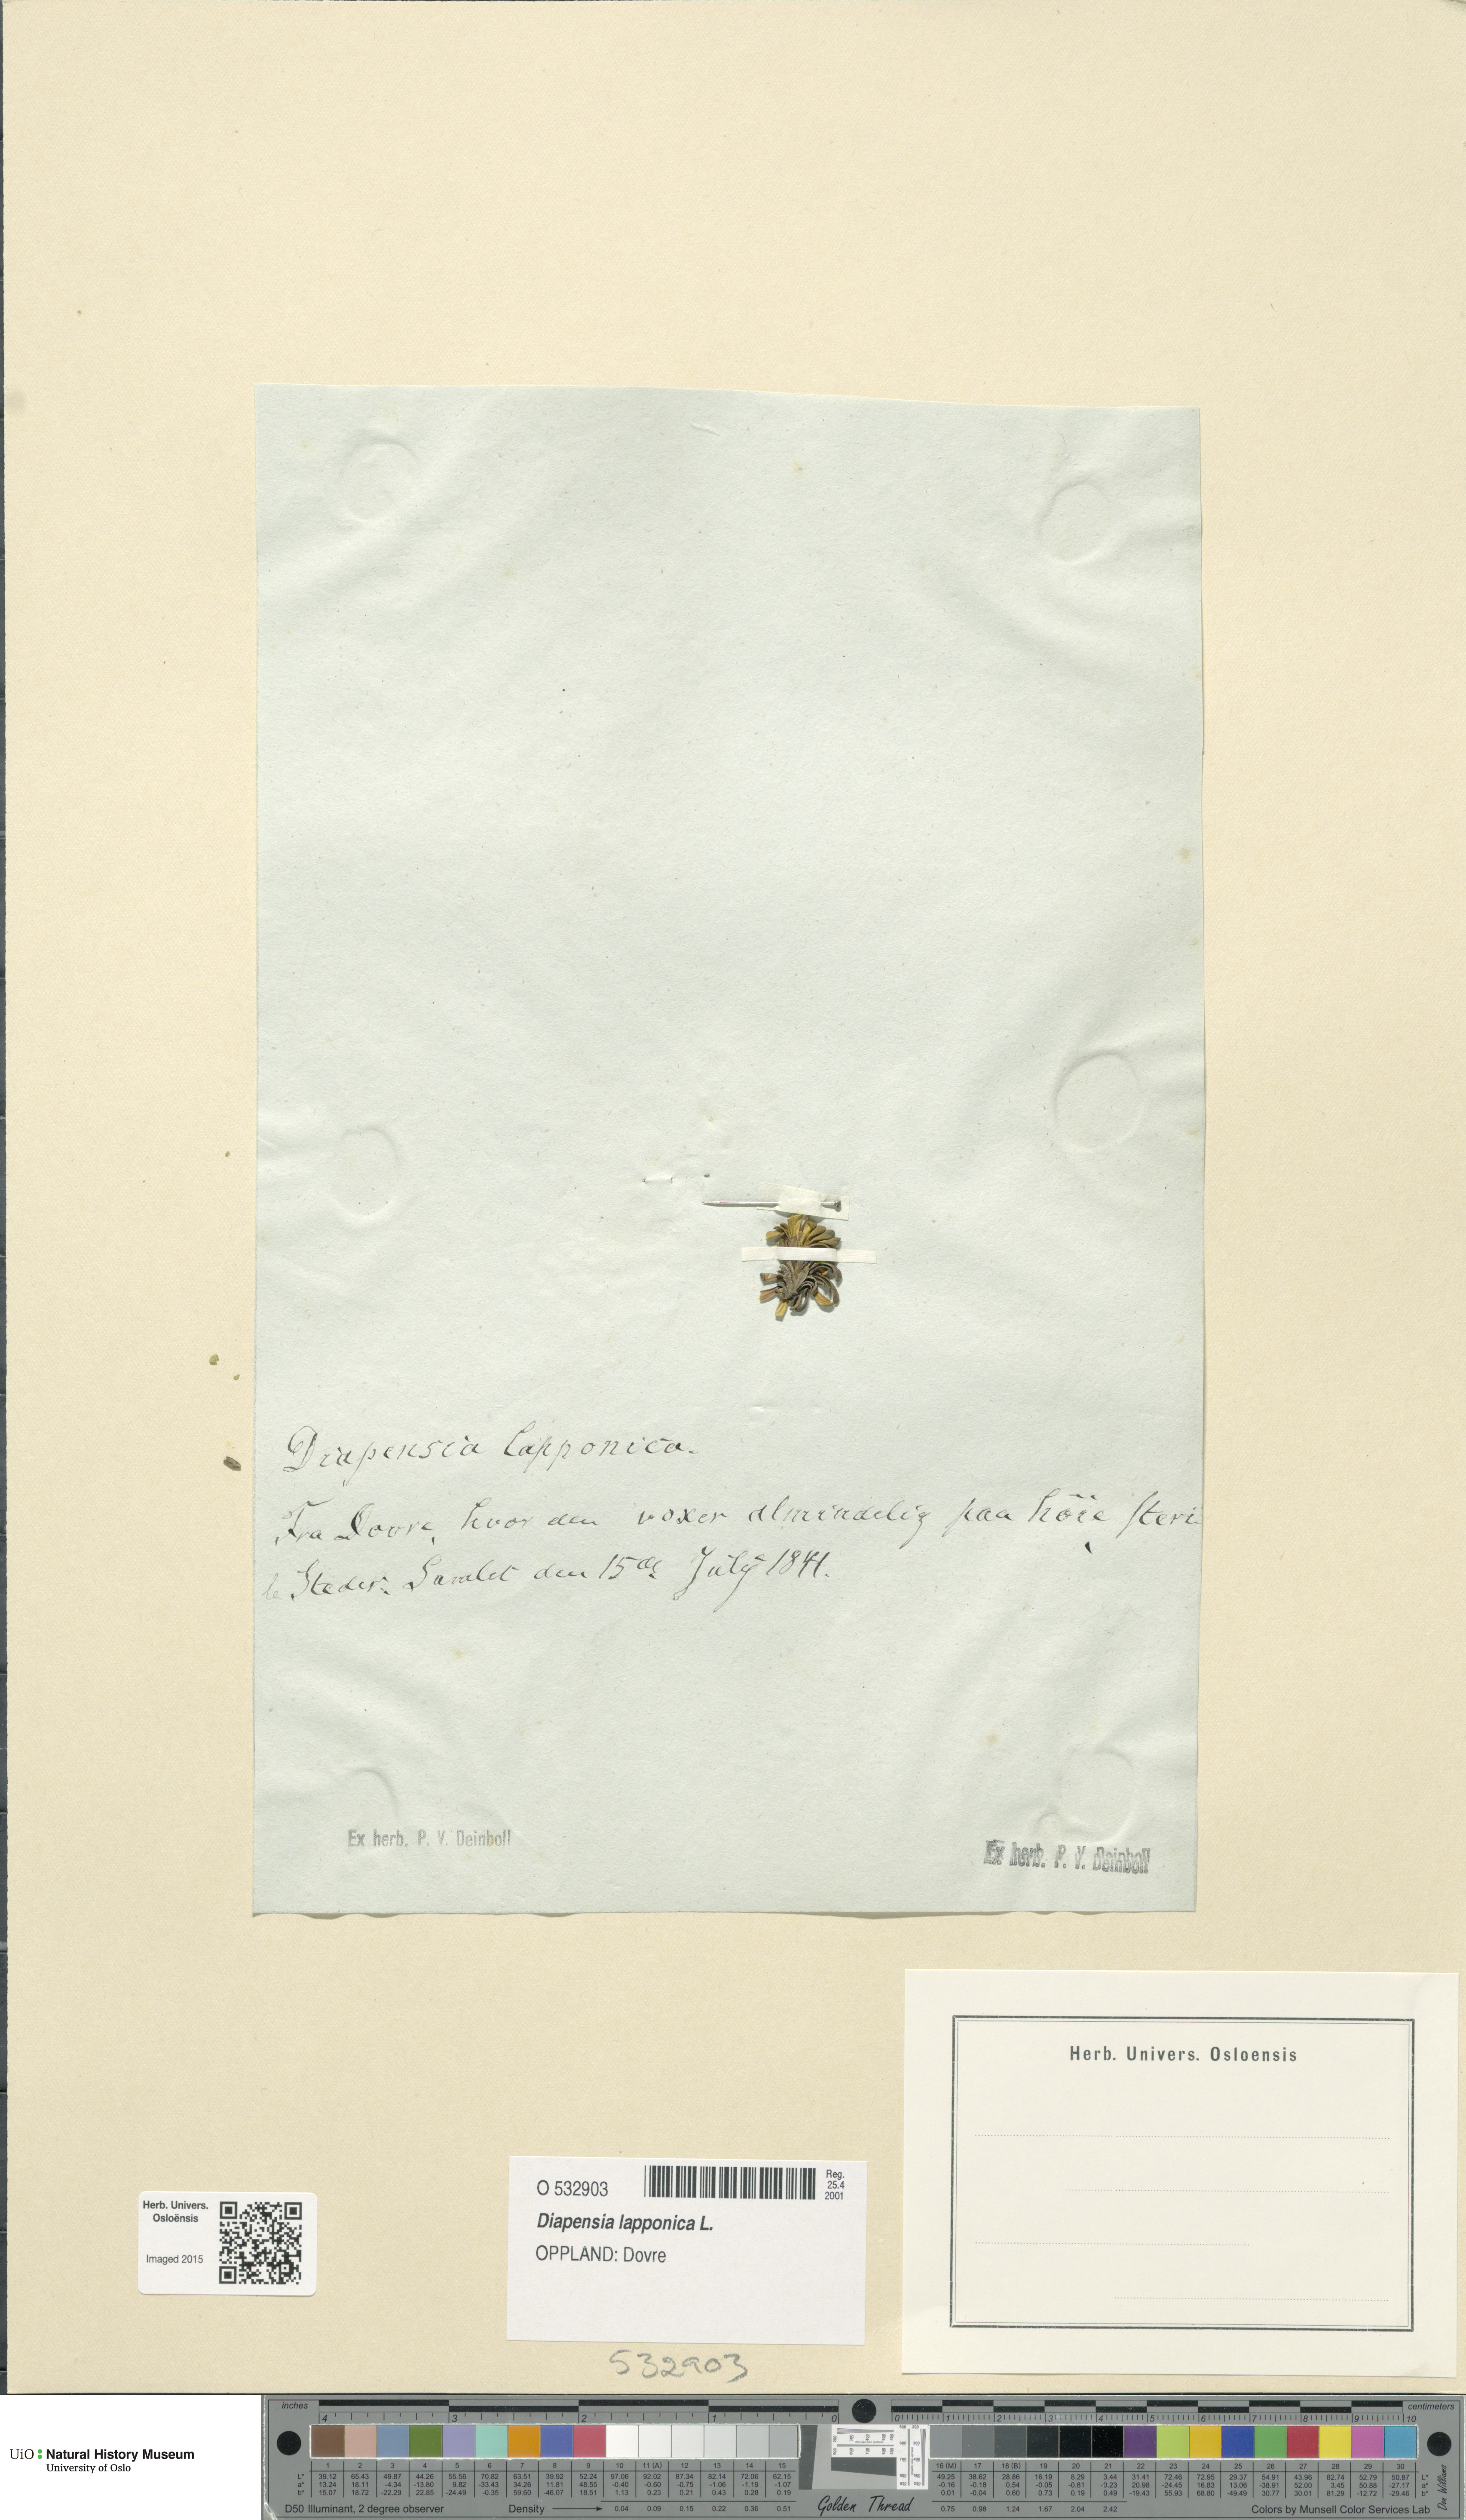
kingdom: Plantae
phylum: Tracheophyta
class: Magnoliopsida
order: Ericales
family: Diapensiaceae
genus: Diapensia
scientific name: Diapensia lapponica
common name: Diapensia
